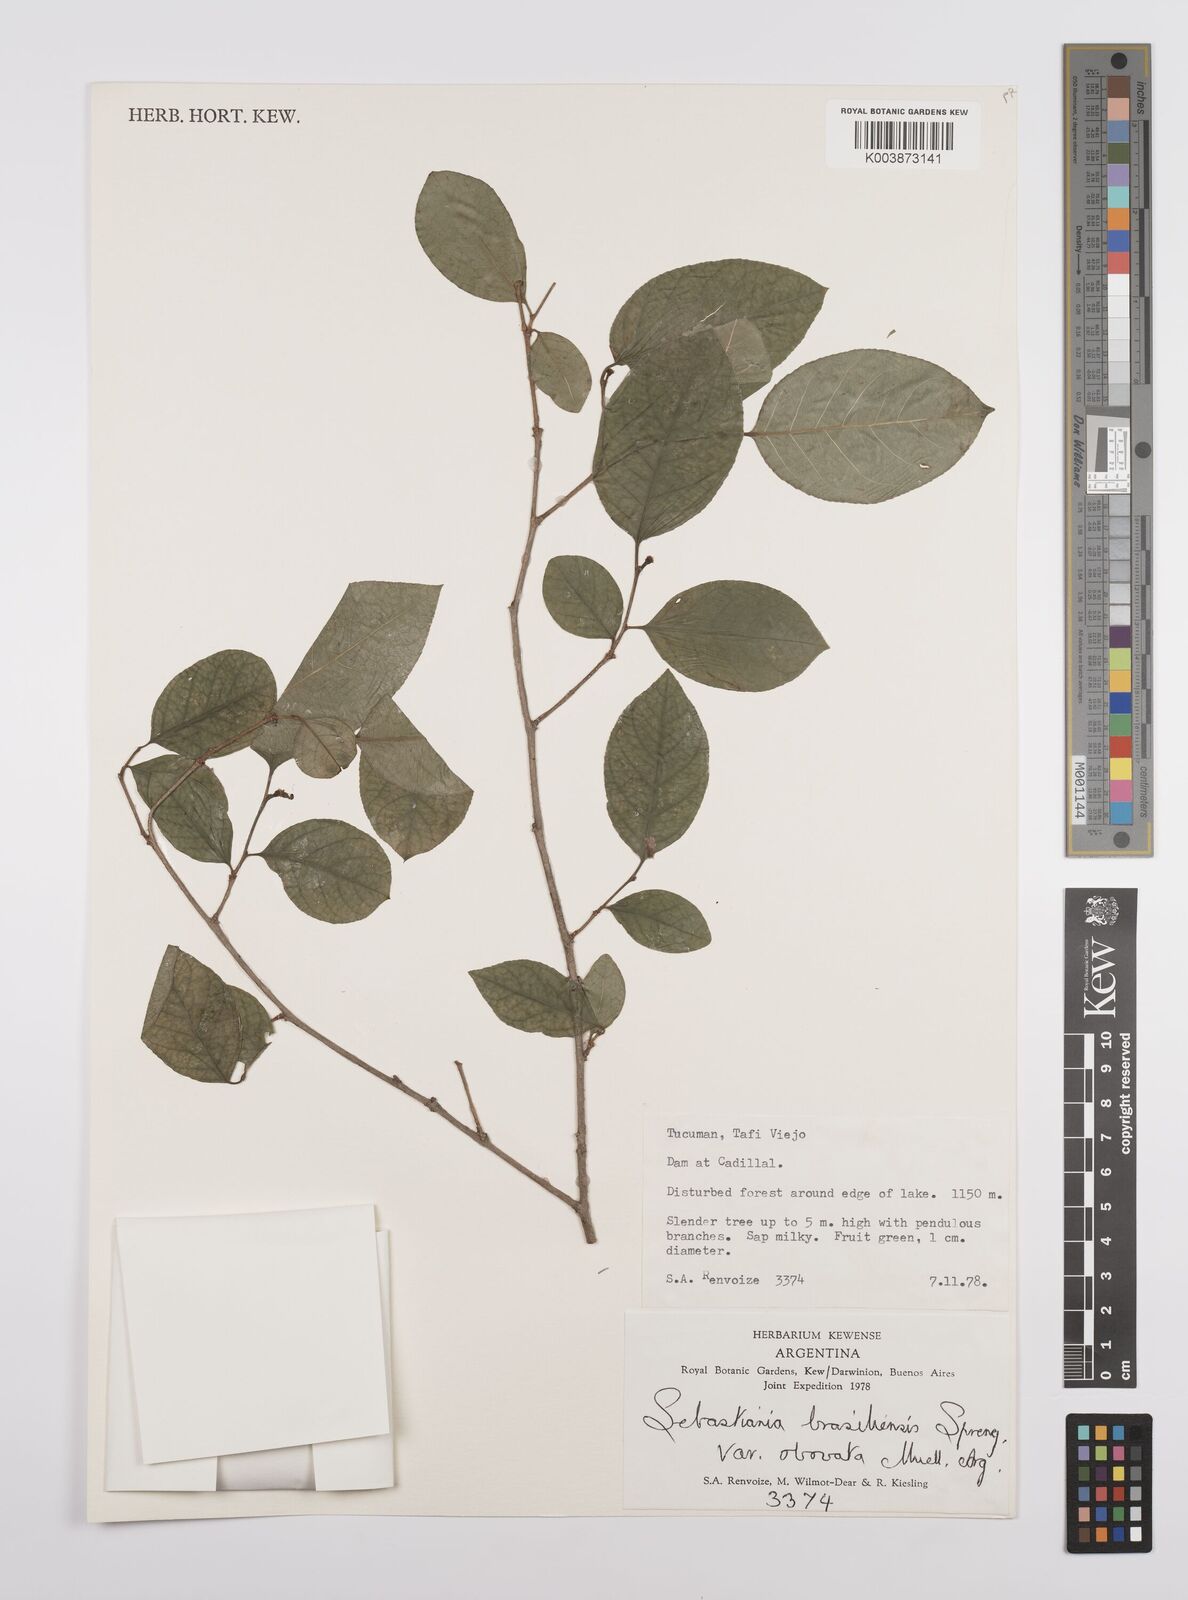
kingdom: Plantae
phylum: Tracheophyta
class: Magnoliopsida
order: Malpighiales
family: Euphorbiaceae
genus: Sebastiania
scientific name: Sebastiania ramosissima
